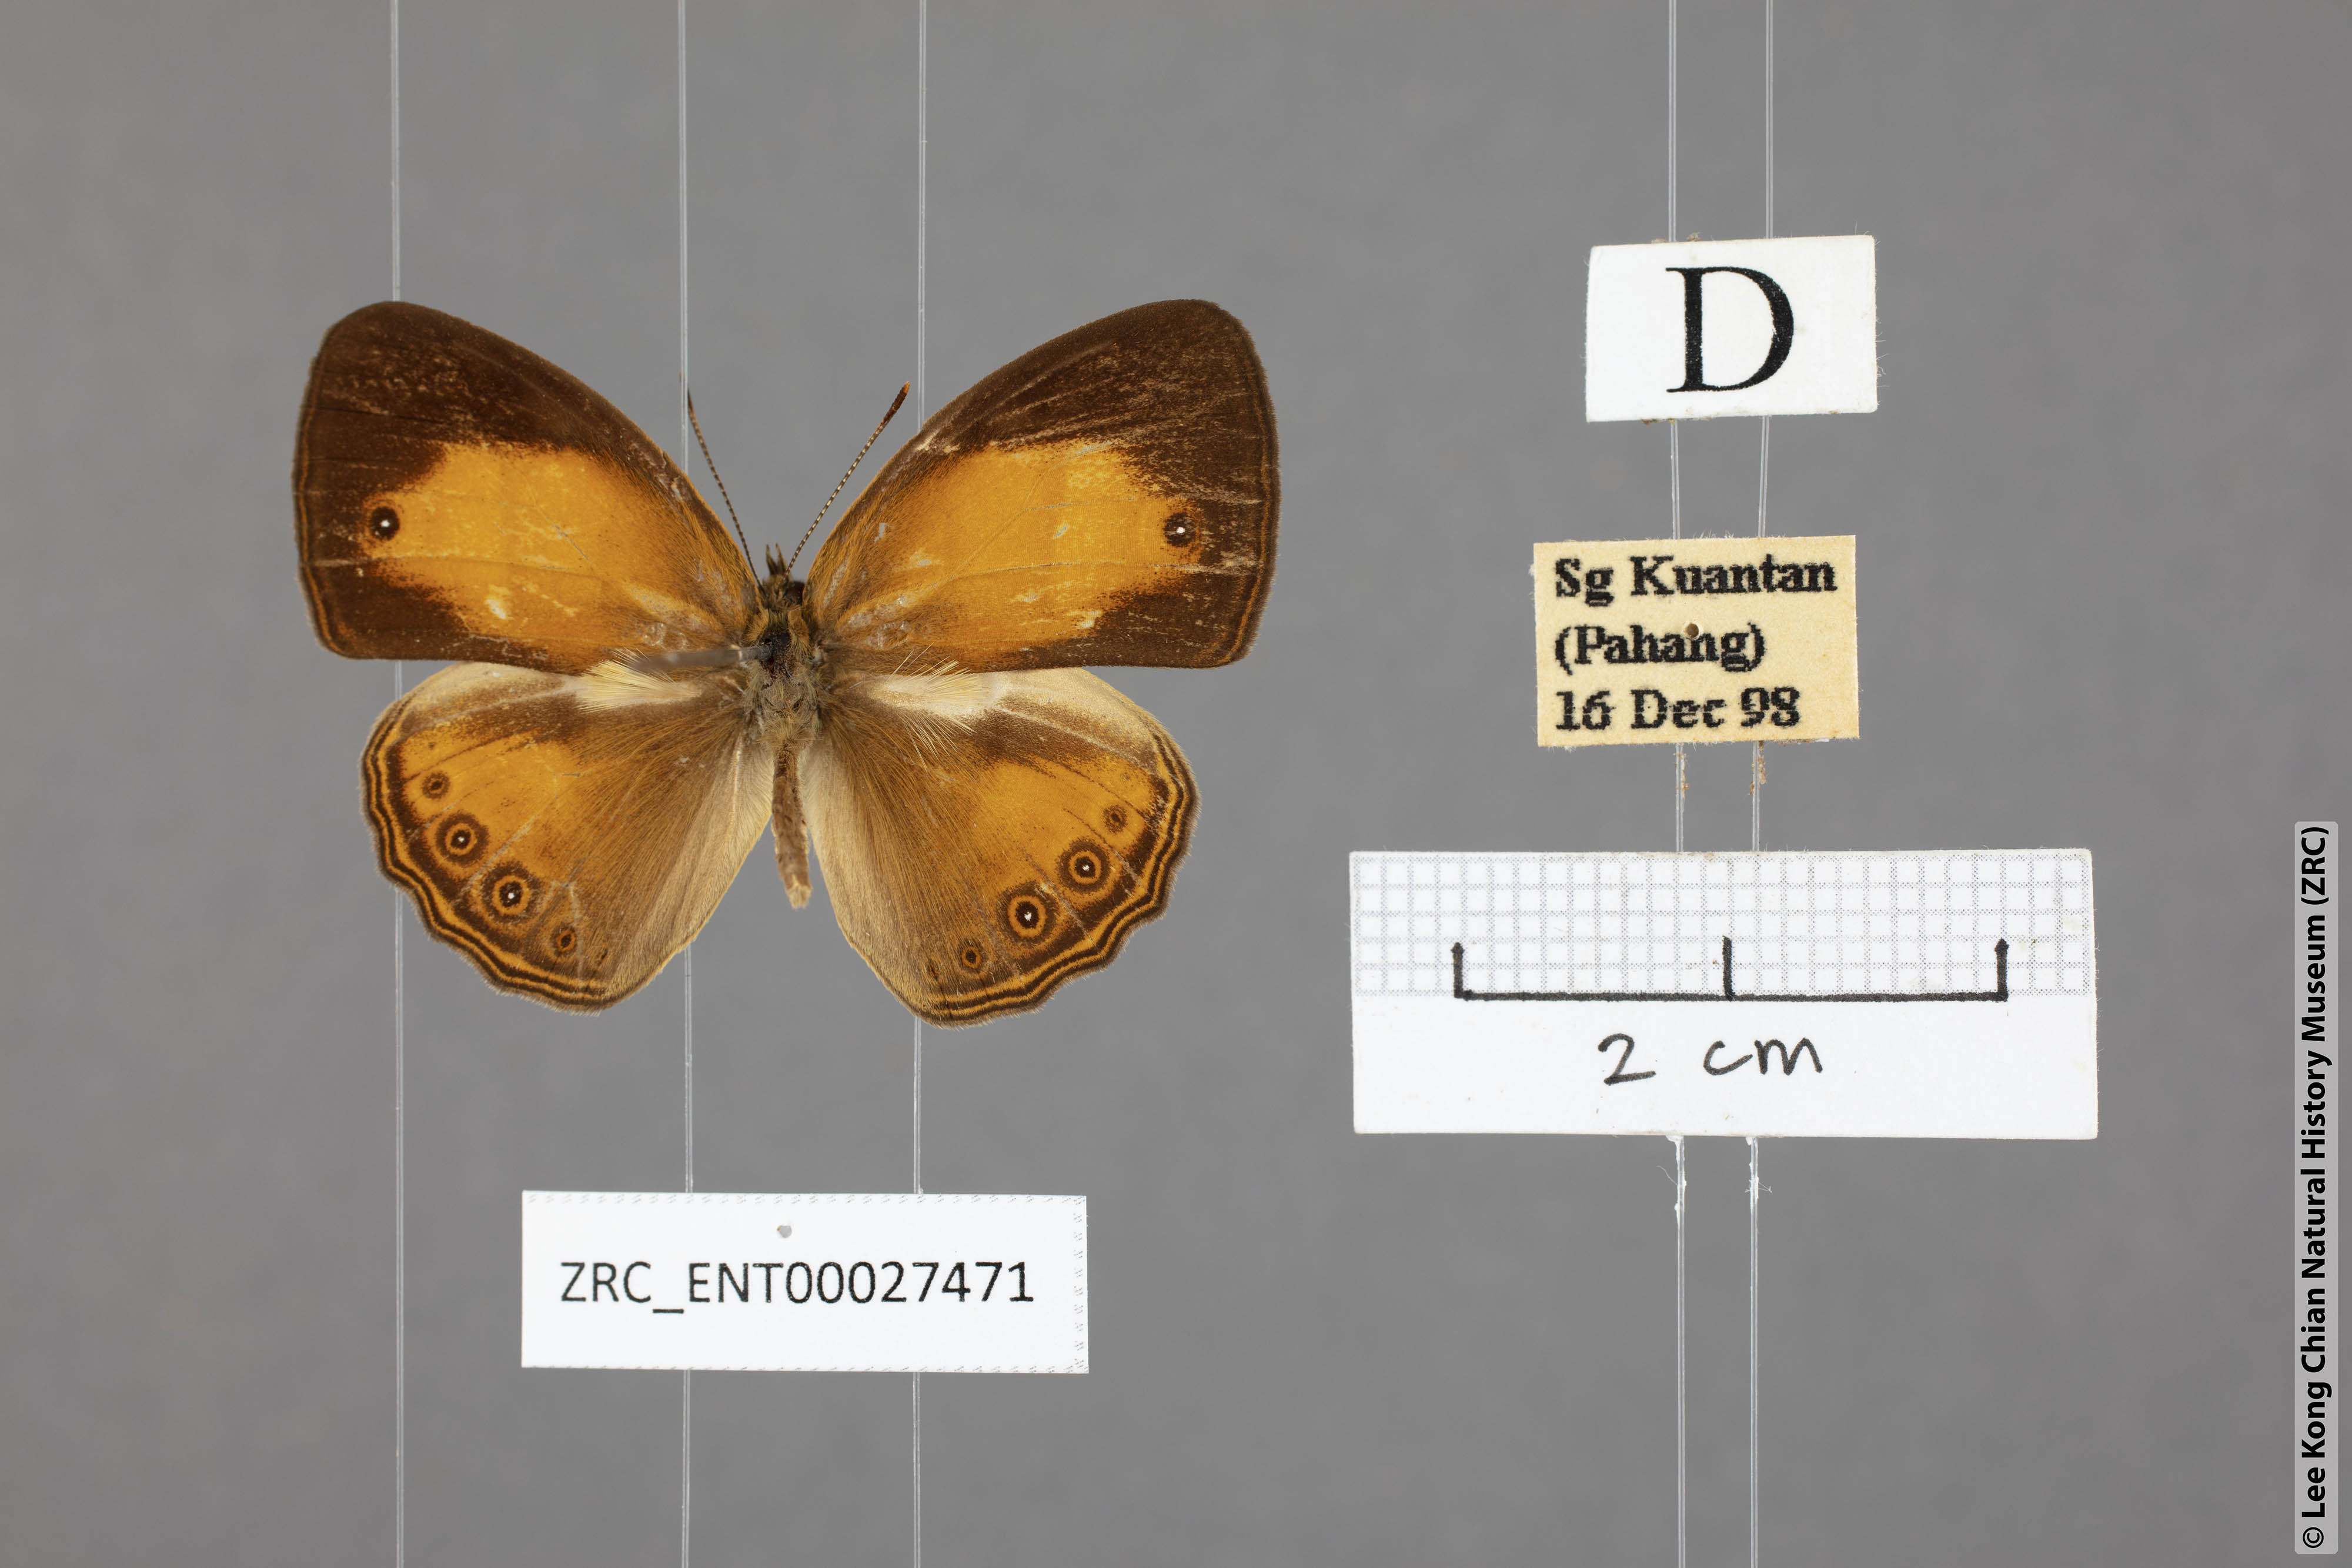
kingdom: Animalia
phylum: Arthropoda
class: Insecta
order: Lepidoptera
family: Nymphalidae
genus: Mycalesis
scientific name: Mycalesis anapita
